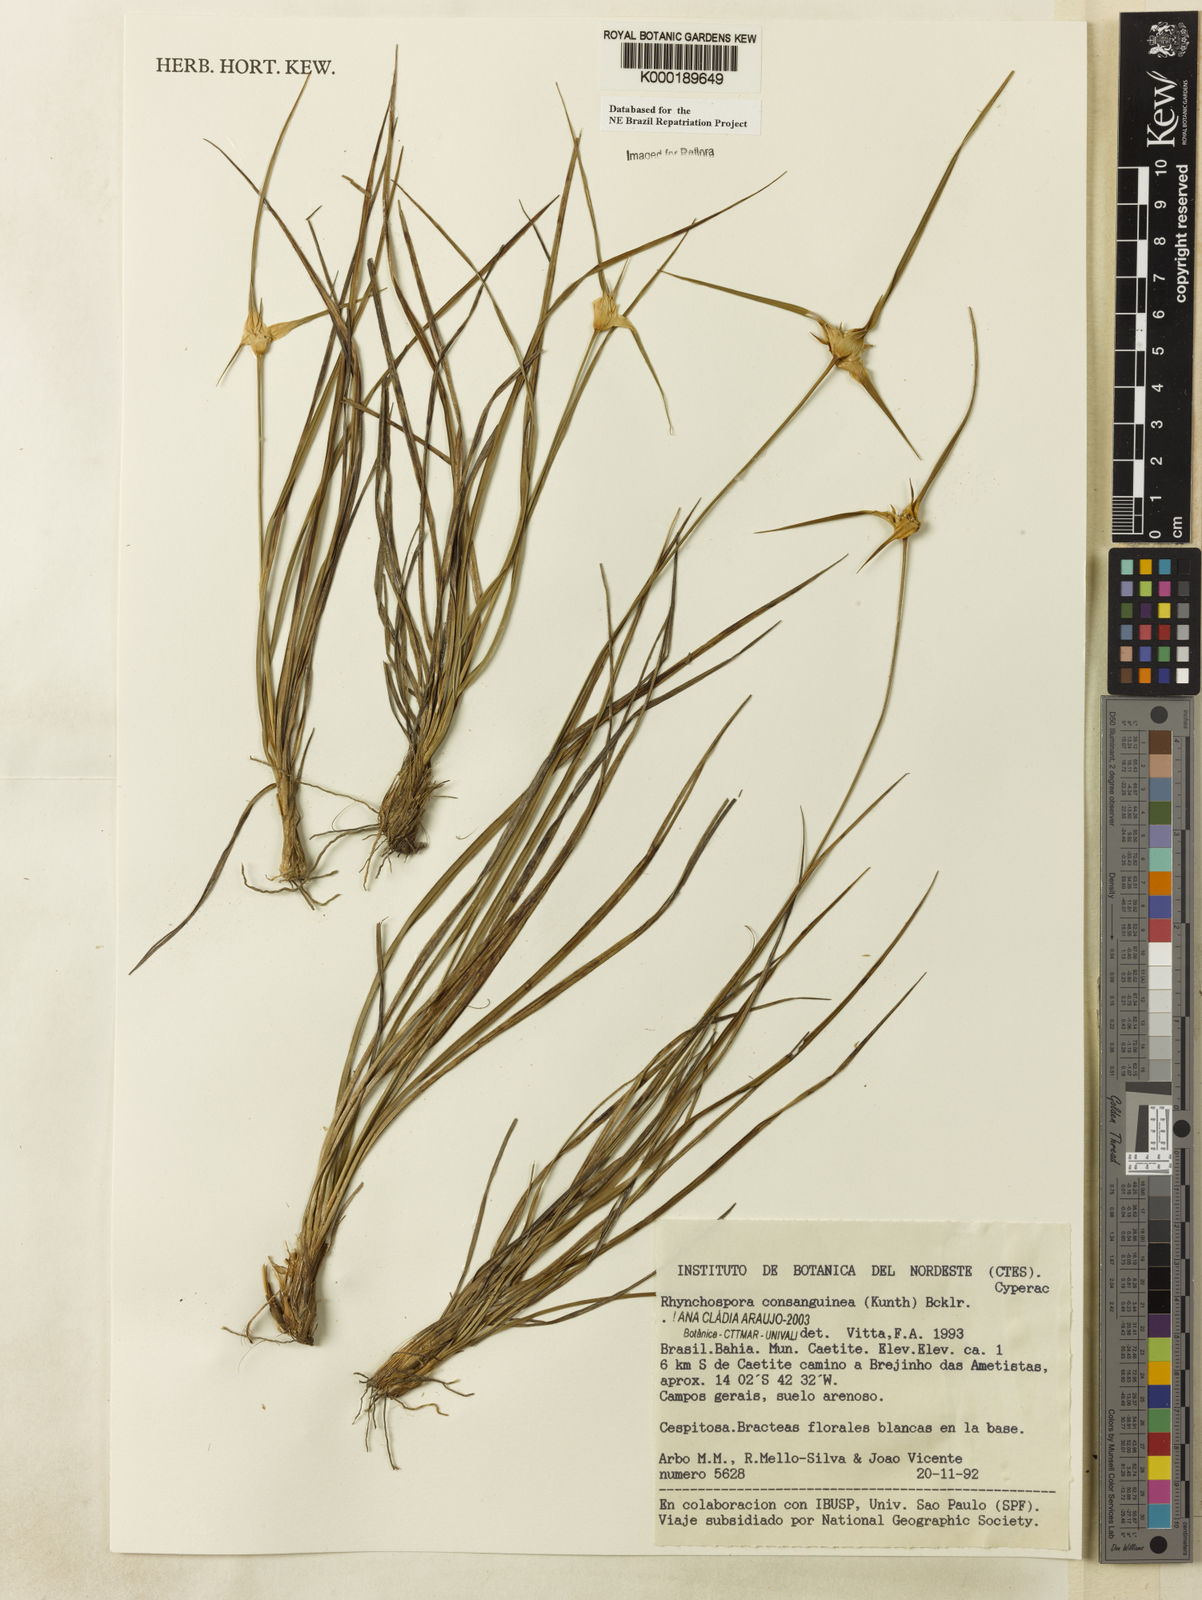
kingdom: Plantae
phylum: Tracheophyta
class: Liliopsida
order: Poales
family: Cyperaceae
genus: Rhynchospora
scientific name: Rhynchospora consanguinea
